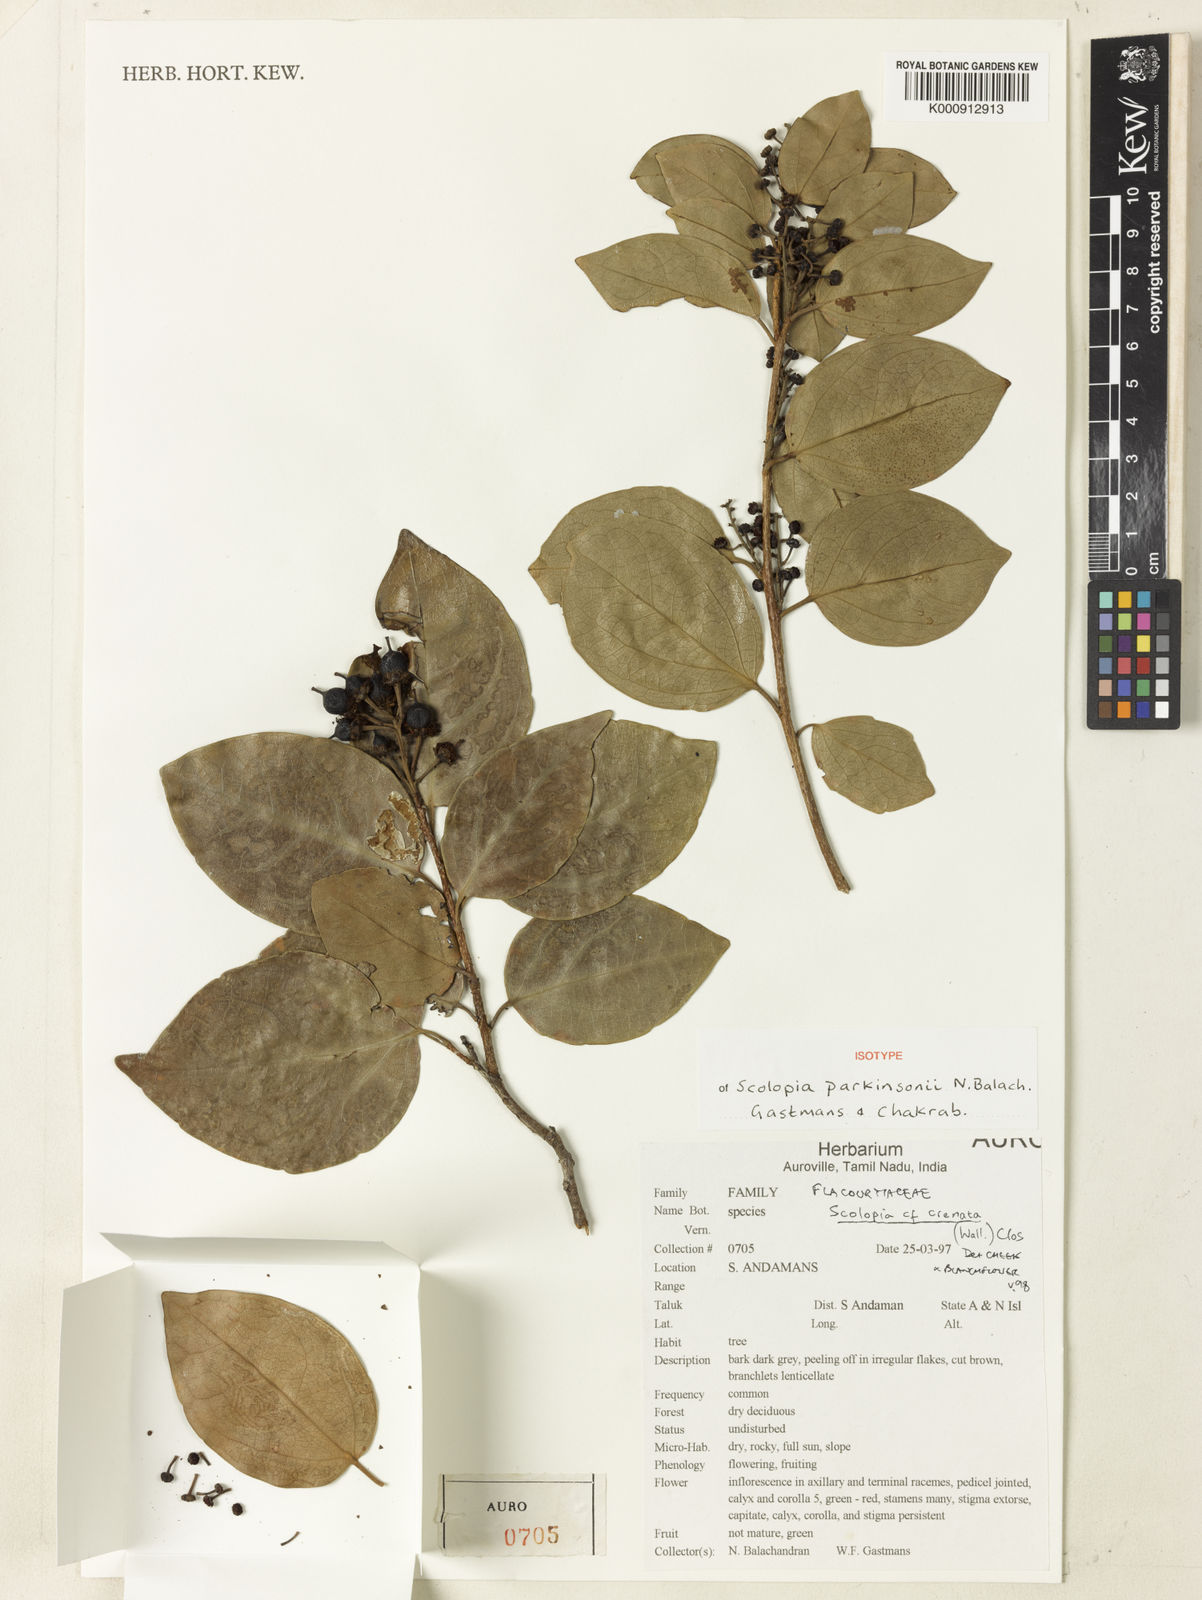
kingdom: Plantae
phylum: Tracheophyta
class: Magnoliopsida
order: Malpighiales
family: Salicaceae
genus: Scolopia
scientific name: Scolopia parkinsonii
